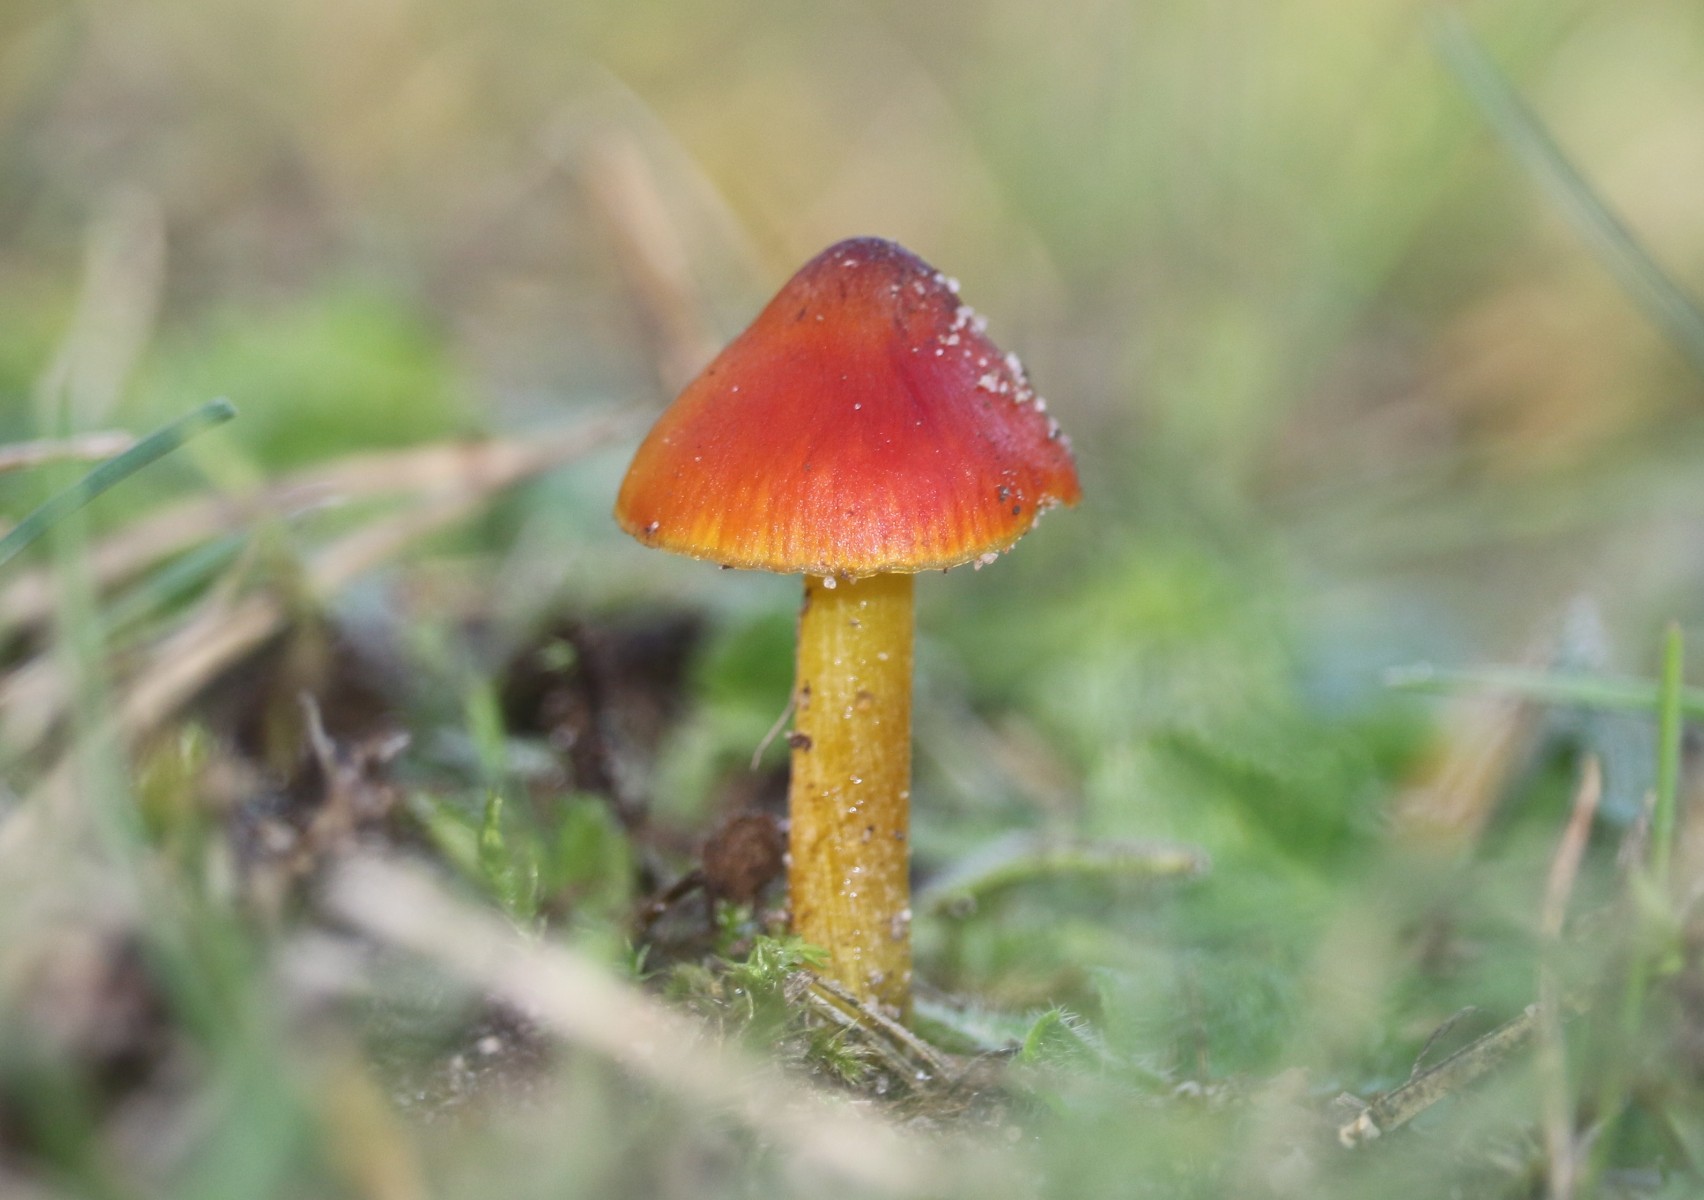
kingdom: Fungi
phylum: Basidiomycota
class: Agaricomycetes
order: Agaricales
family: Hygrophoraceae
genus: Hygrocybe
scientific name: Hygrocybe conica
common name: kegle-vokshat
